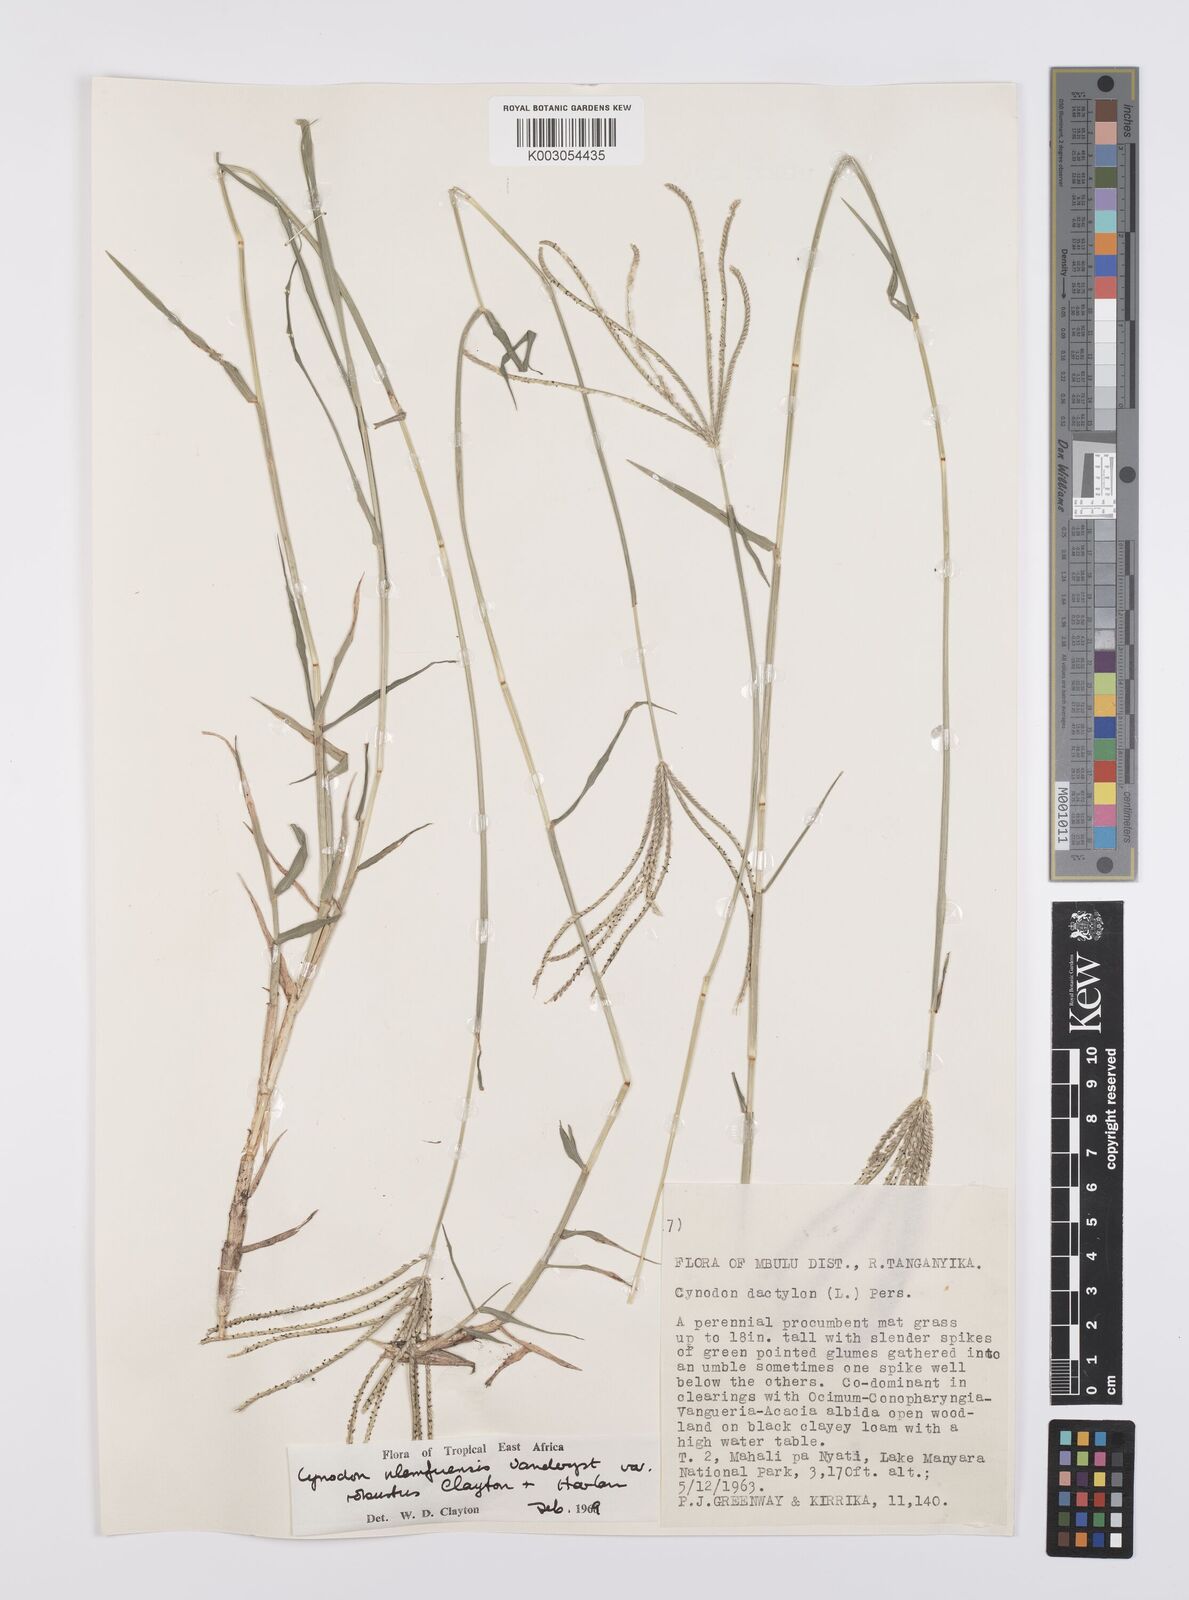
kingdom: Plantae
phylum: Tracheophyta
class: Liliopsida
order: Poales
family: Poaceae
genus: Cynodon
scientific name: Cynodon nlemfuensis
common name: African bermudagrass
